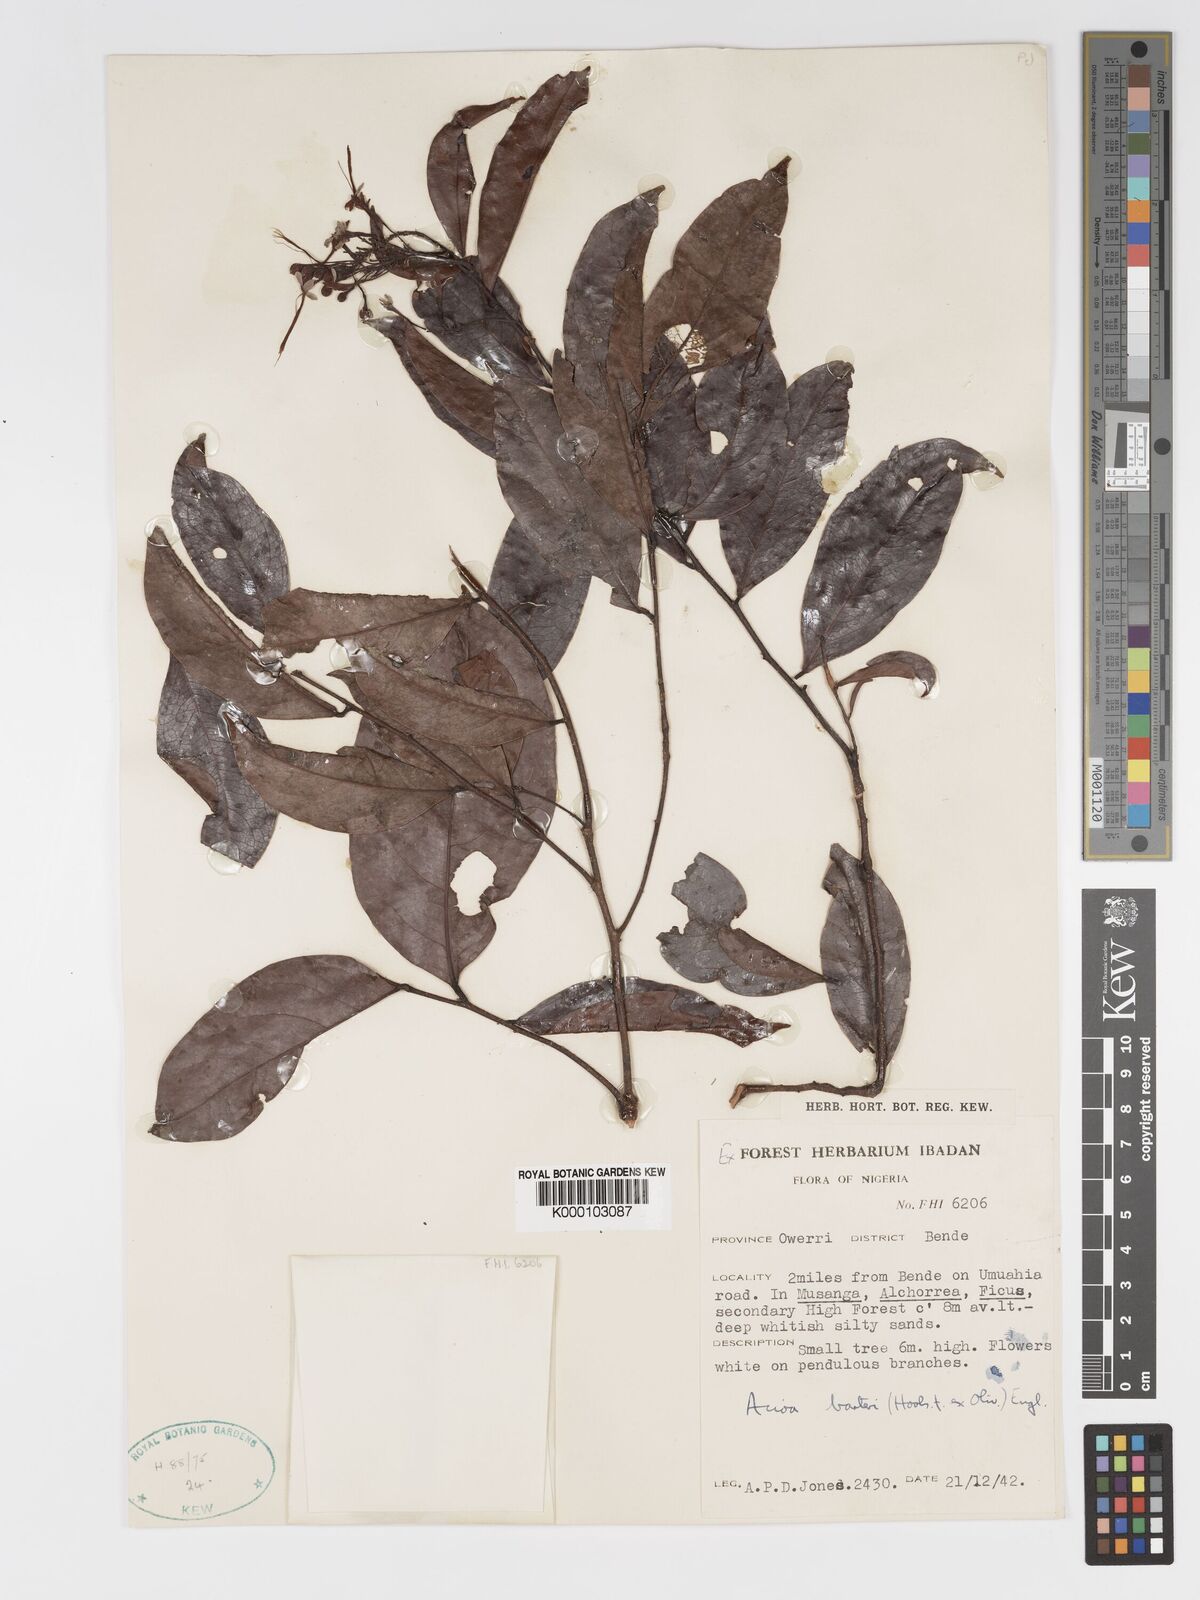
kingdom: Plantae
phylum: Tracheophyta
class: Magnoliopsida
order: Malpighiales
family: Chrysobalanaceae
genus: Dactyladenia
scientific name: Dactyladenia barteri
